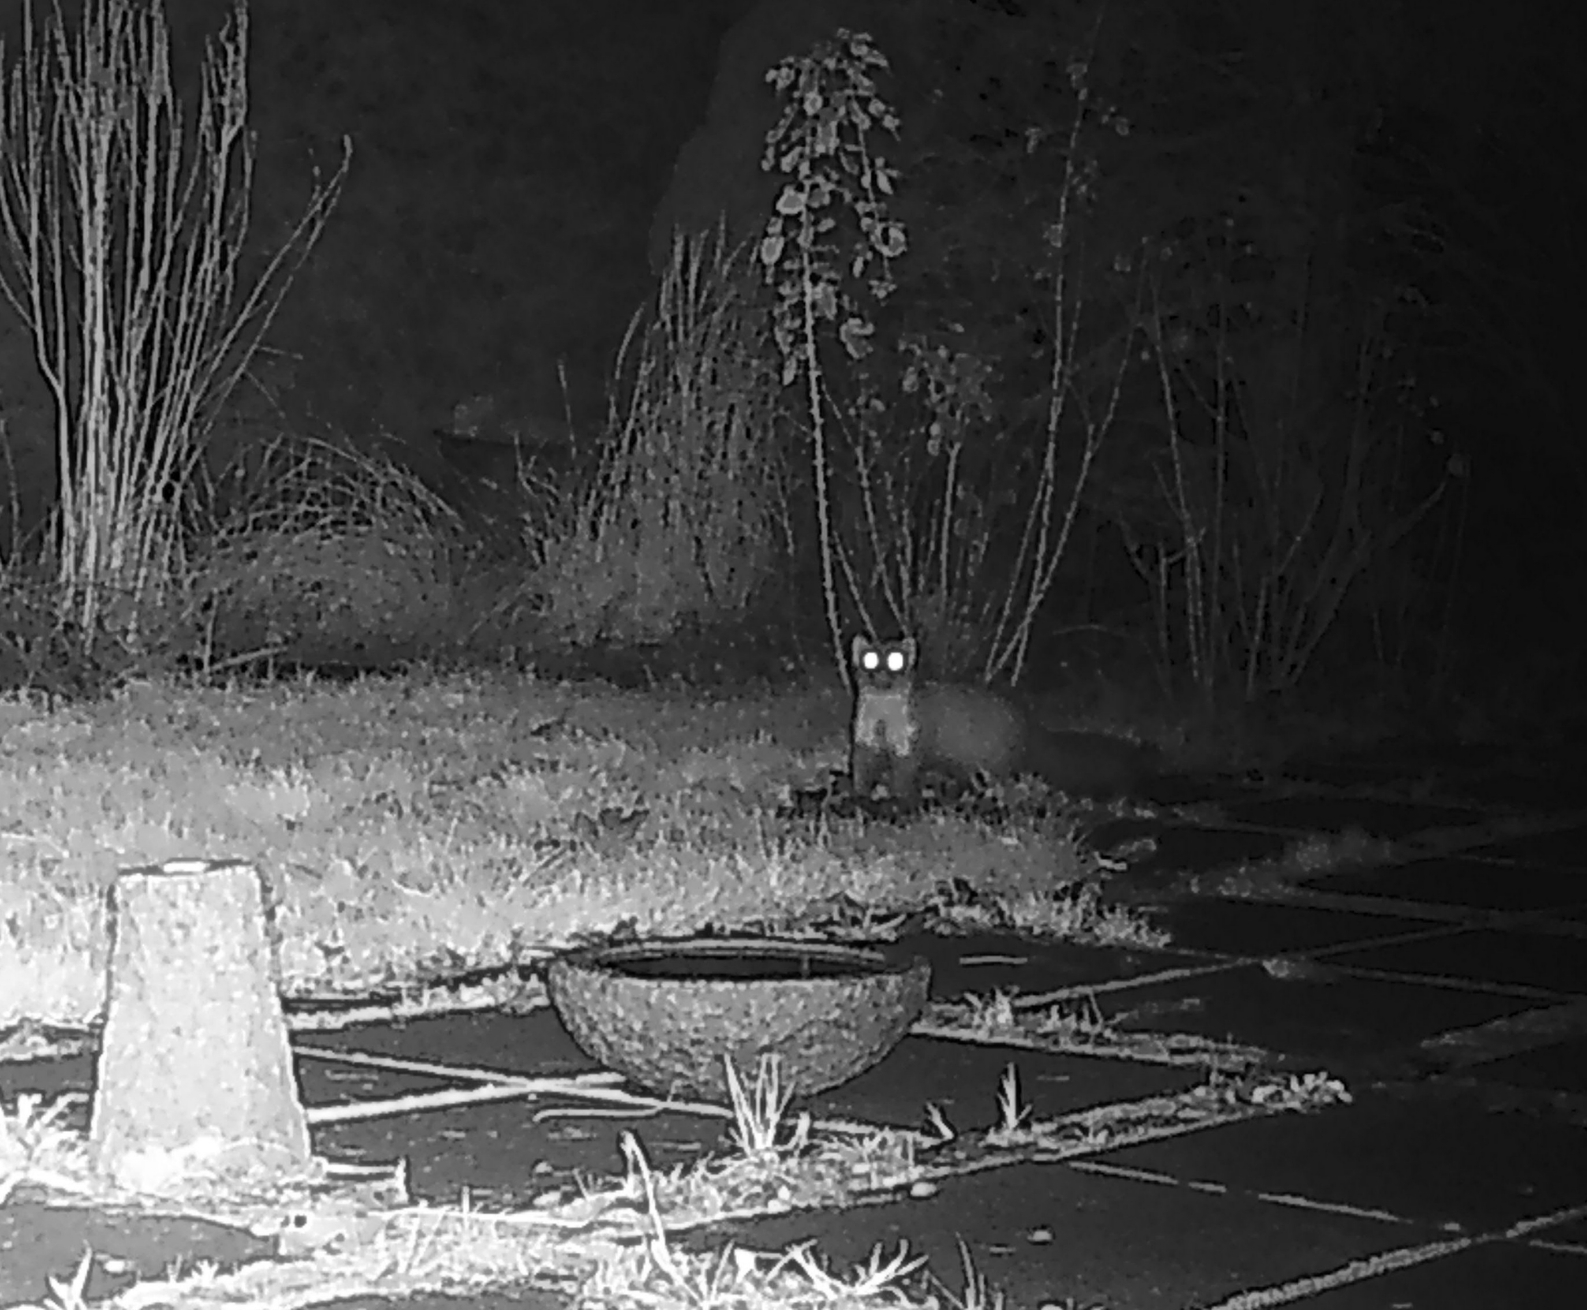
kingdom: Animalia
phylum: Chordata
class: Mammalia
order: Carnivora
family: Mustelidae
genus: Martes
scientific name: Martes foina
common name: Husmår
